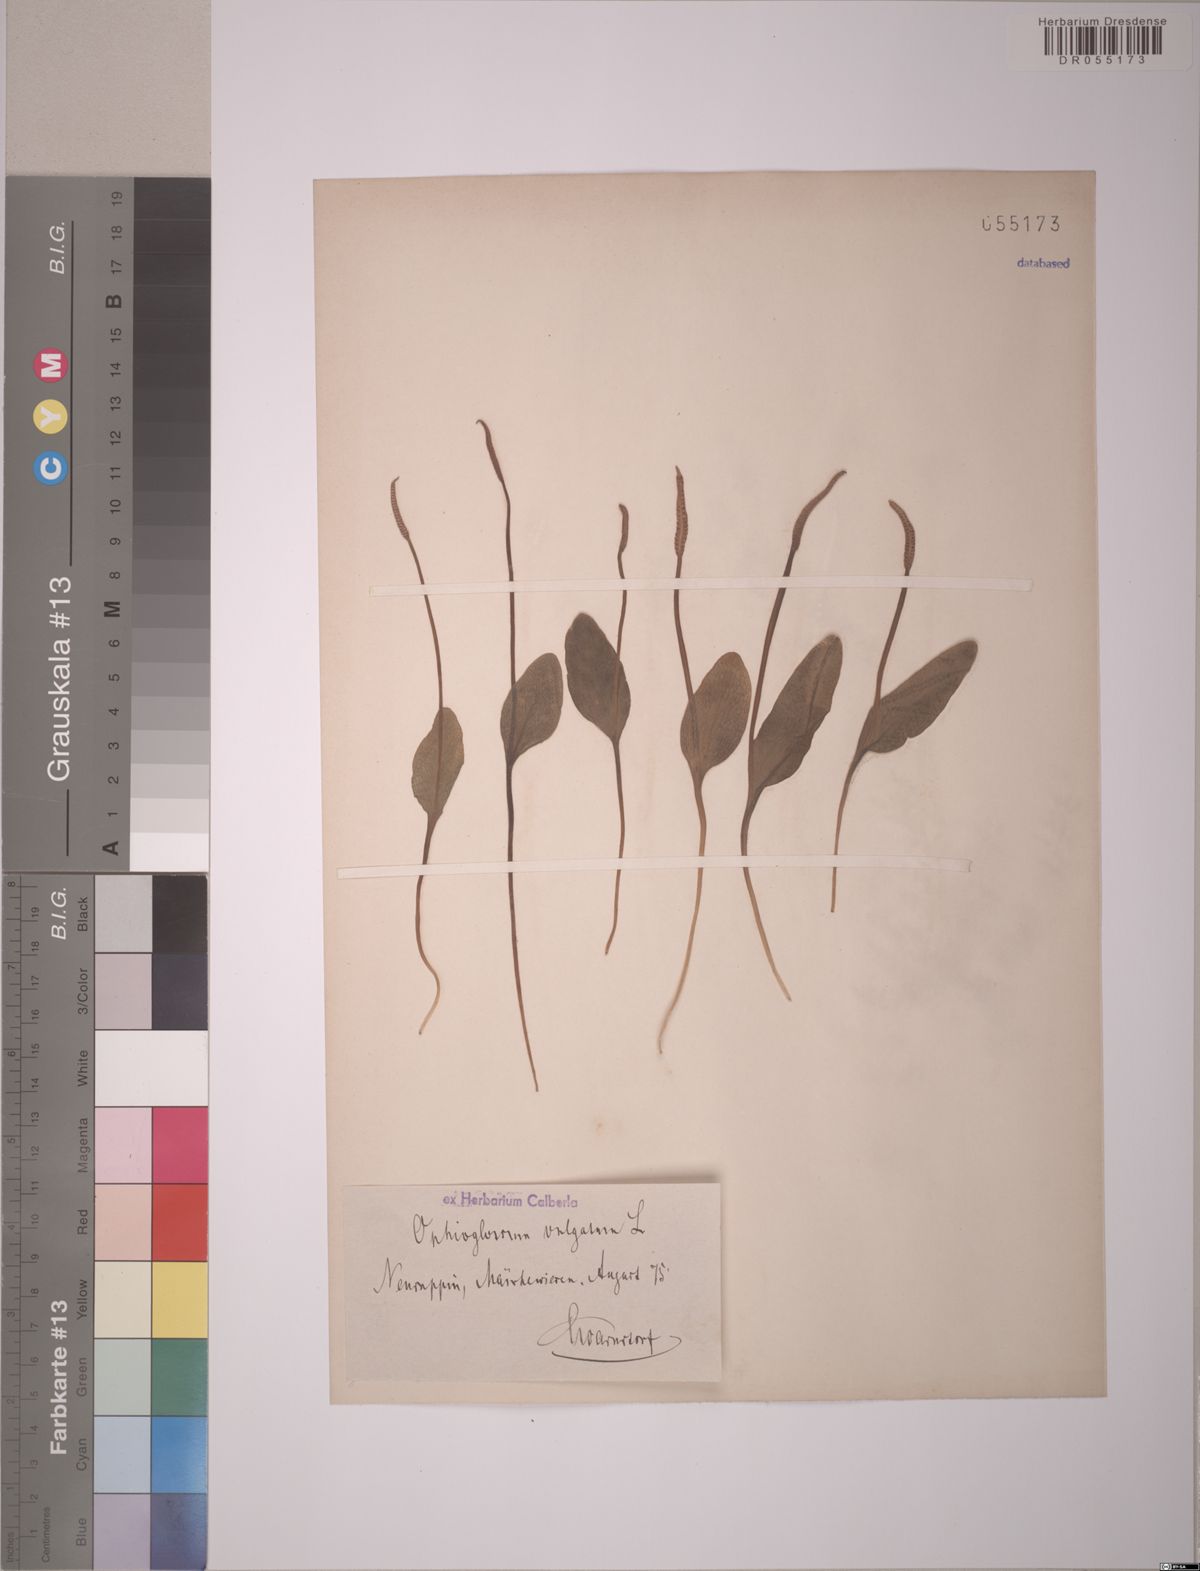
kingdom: Plantae
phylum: Tracheophyta
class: Polypodiopsida
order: Ophioglossales
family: Ophioglossaceae
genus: Ophioglossum
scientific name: Ophioglossum vulgatum
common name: Adder's-tongue
